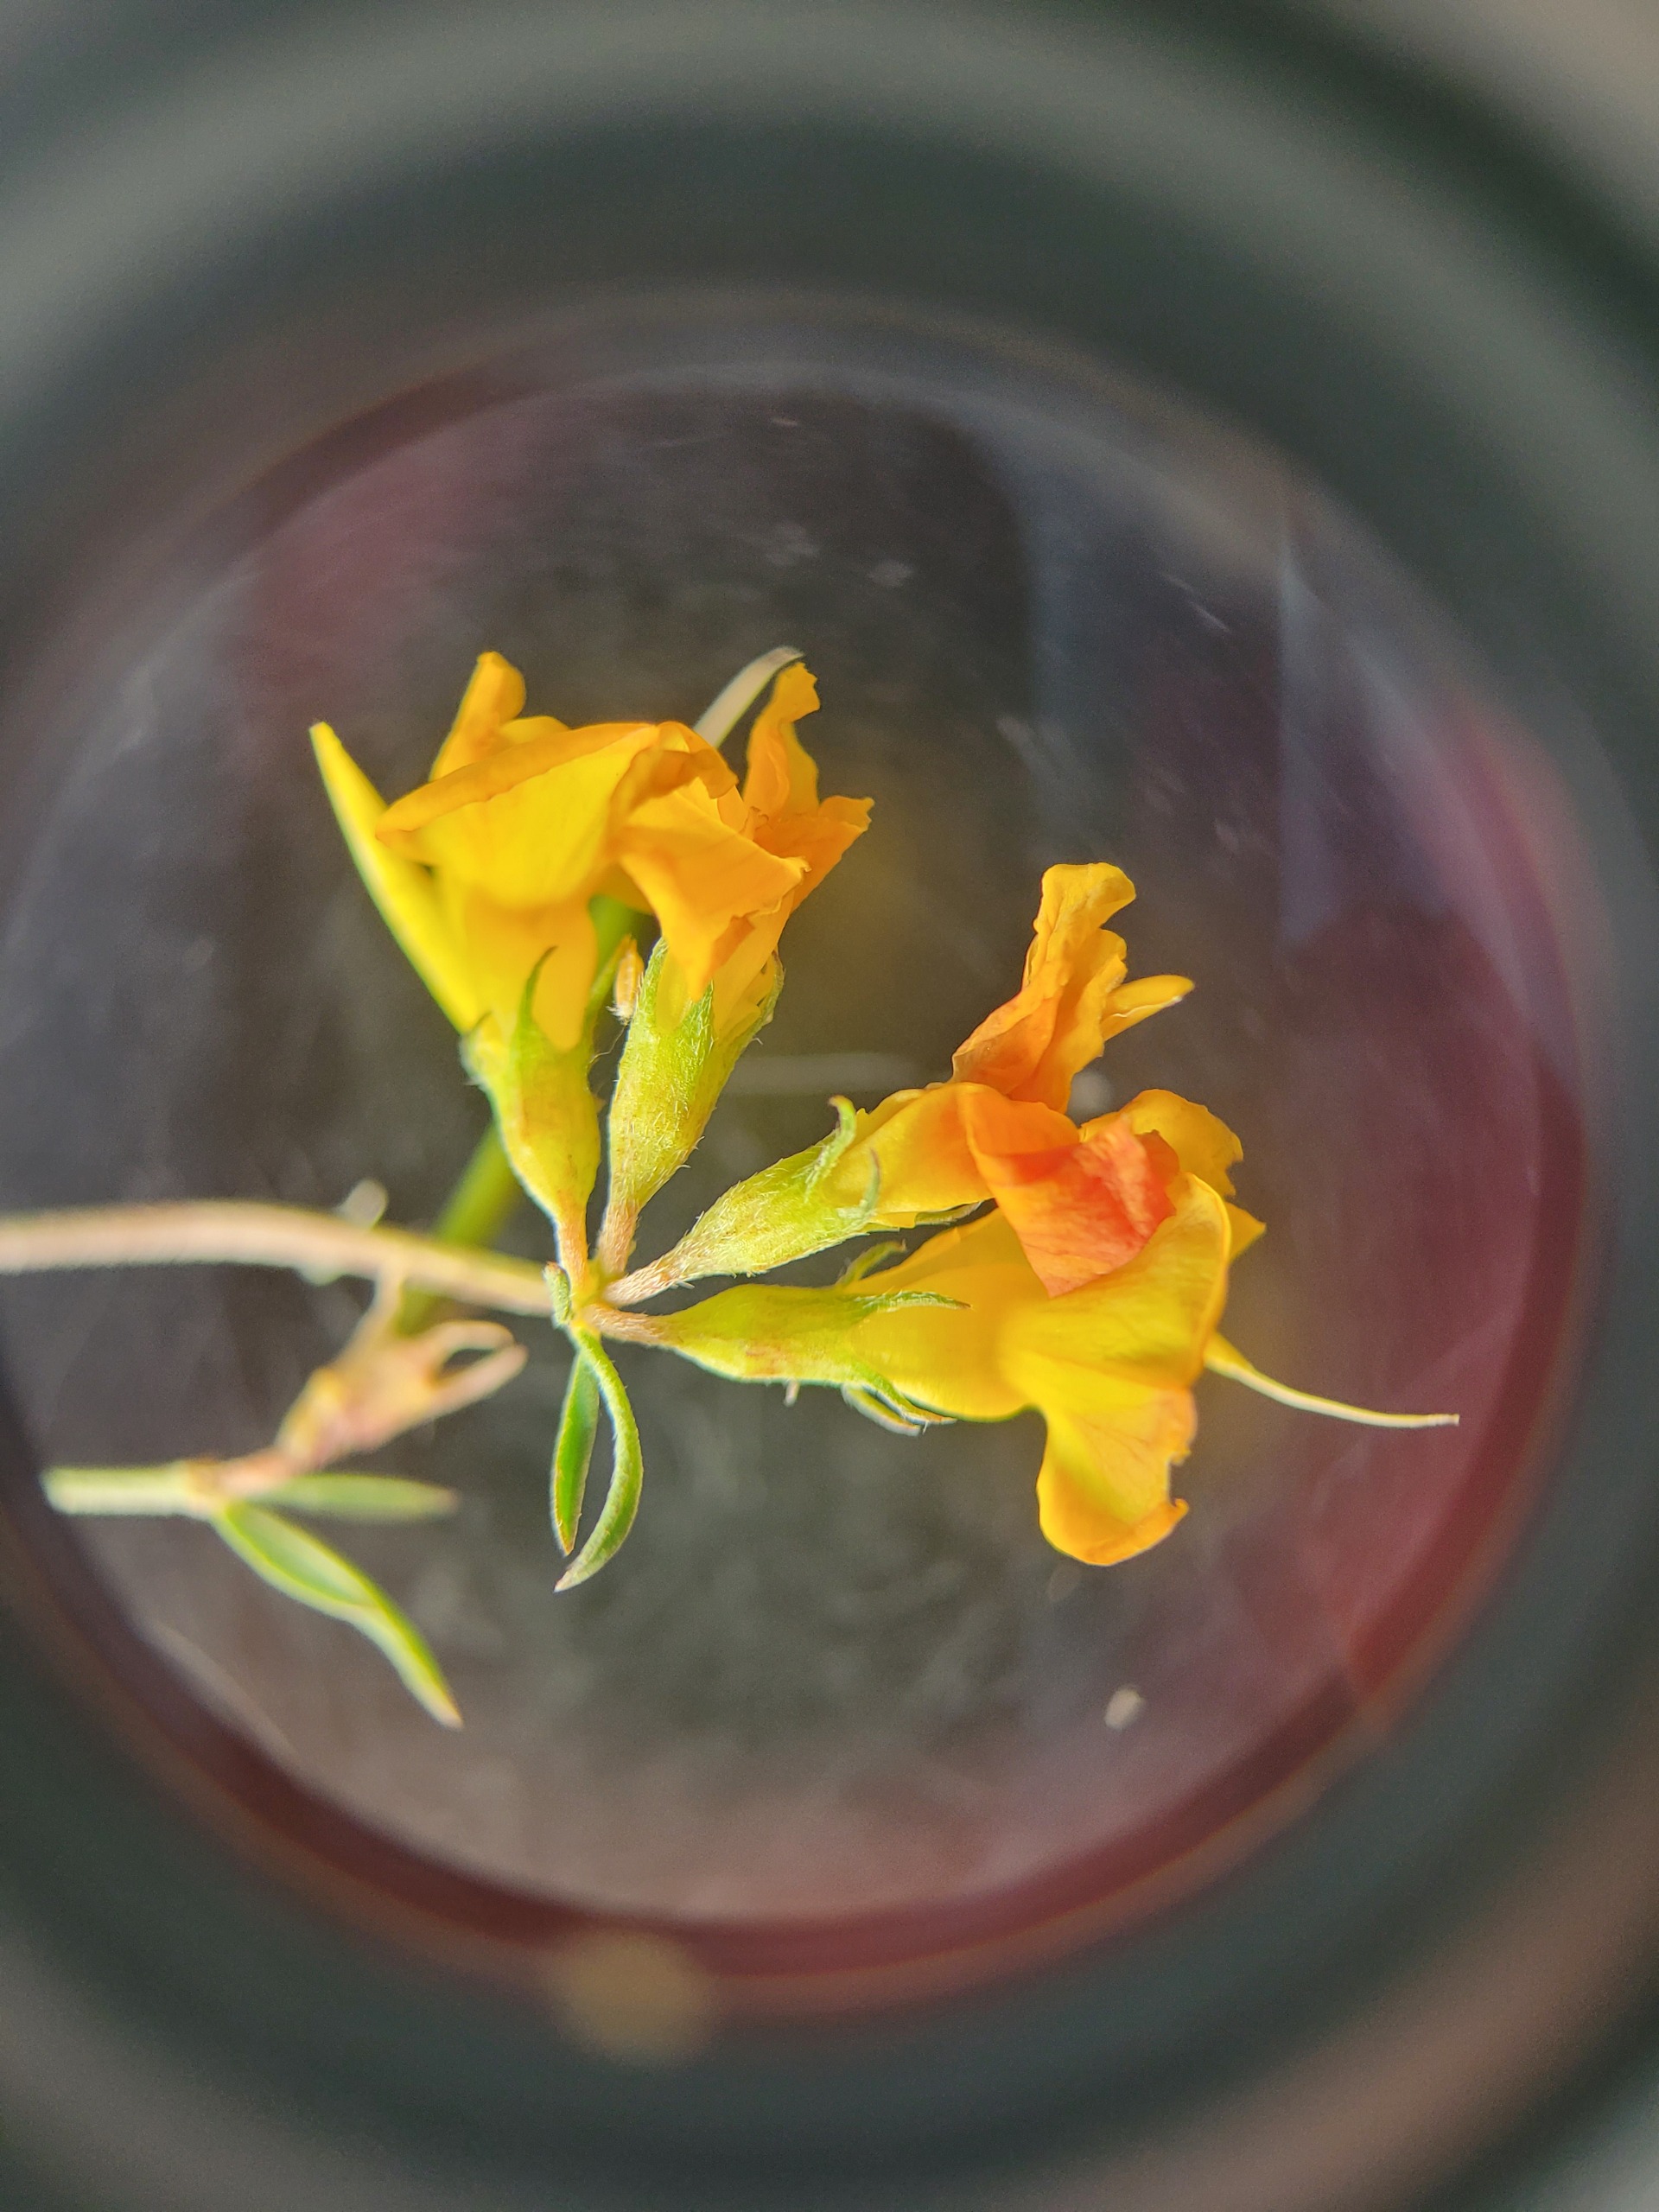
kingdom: Plantae
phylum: Tracheophyta
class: Magnoliopsida
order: Fabales
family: Fabaceae
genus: Lotus
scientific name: Lotus tenuis
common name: Smalbladet kællingetand
